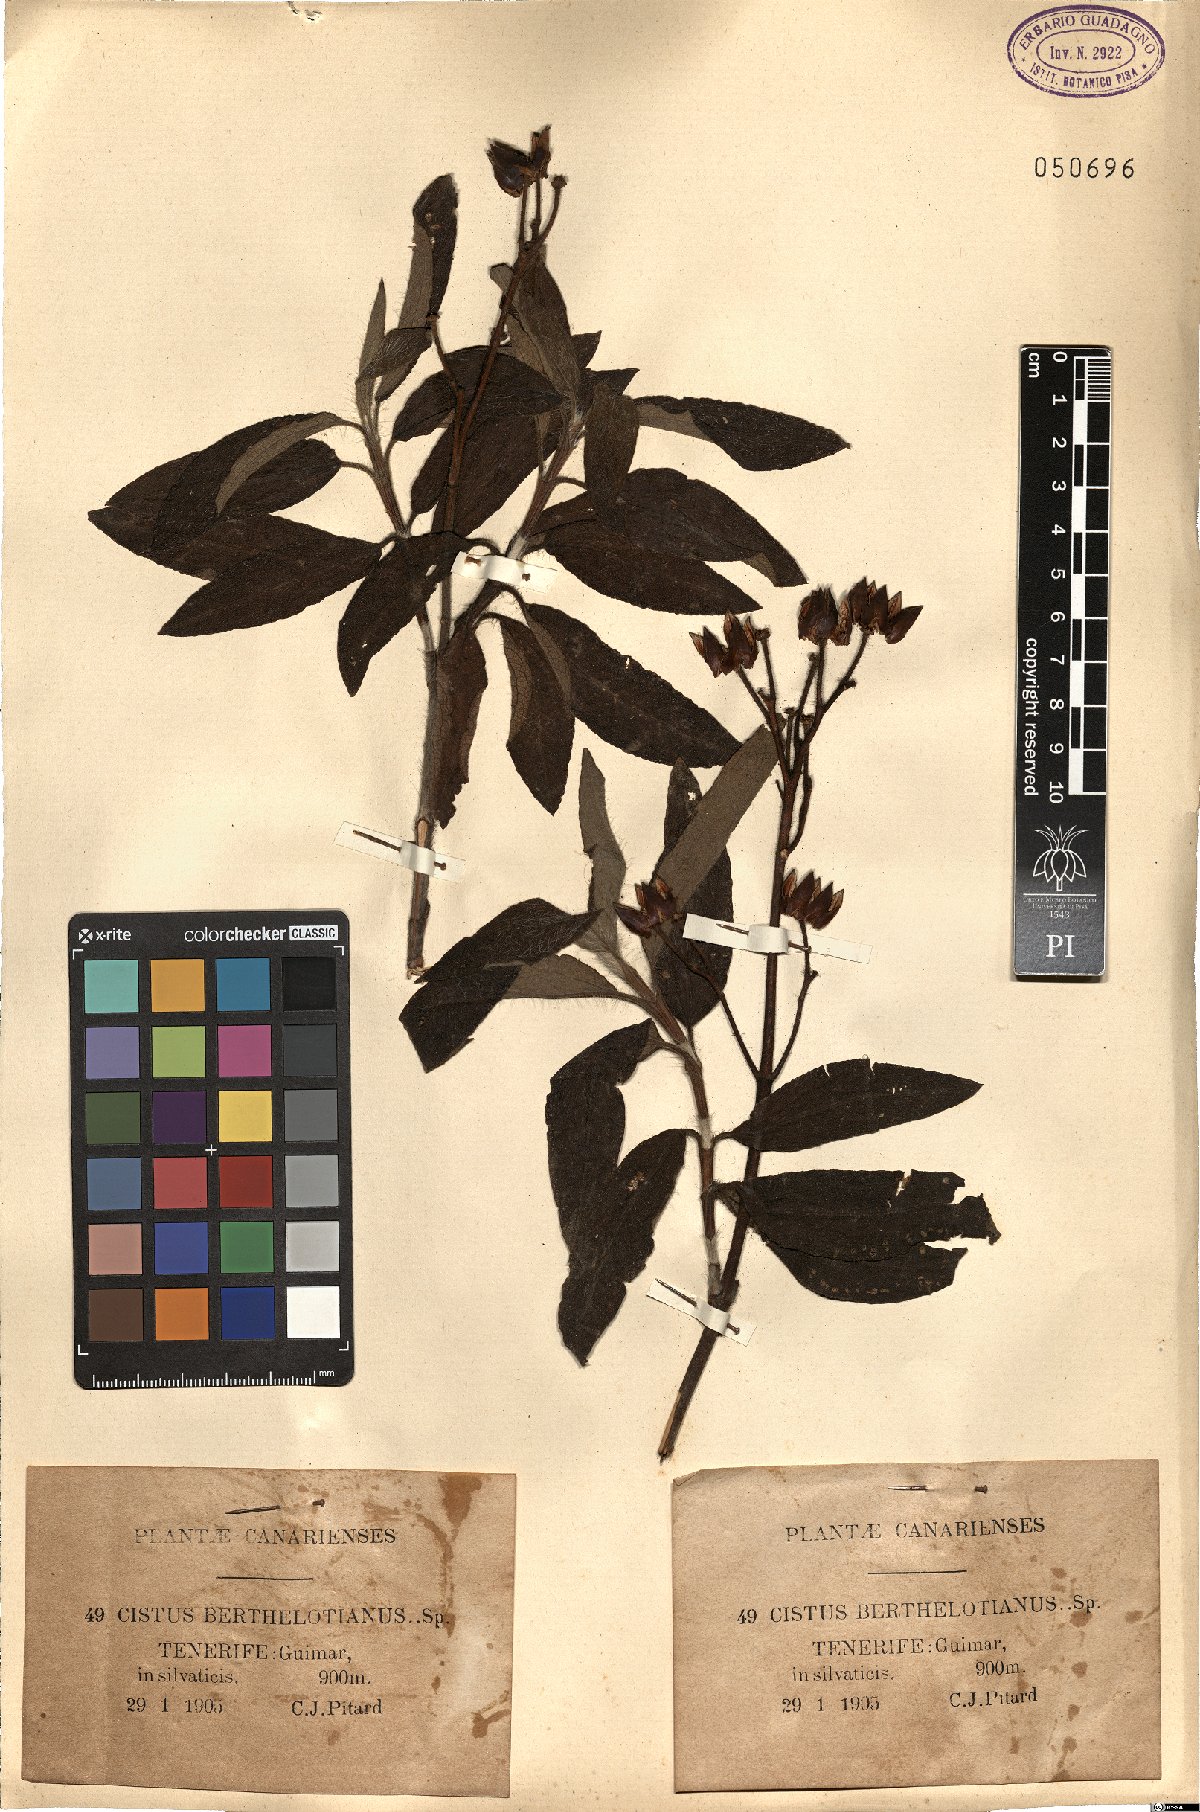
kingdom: Plantae
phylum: Tracheophyta
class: Magnoliopsida
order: Malvales
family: Cistaceae
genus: Cistus
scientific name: Cistus symphytifolius
